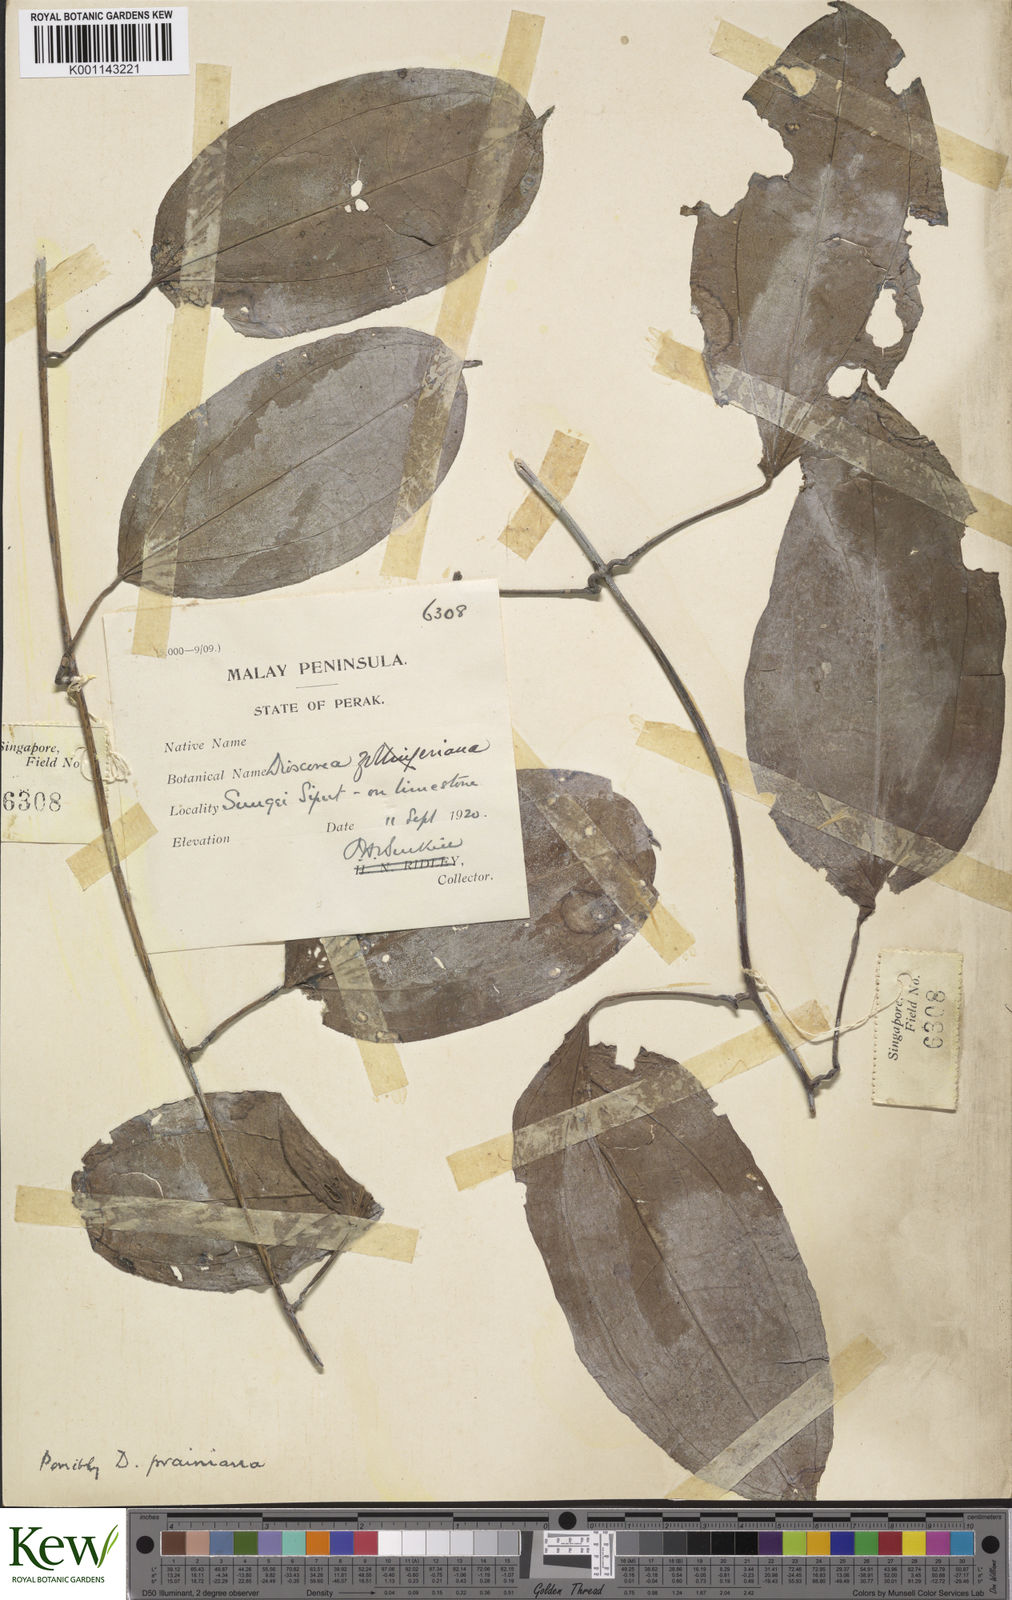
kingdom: Plantae
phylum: Tracheophyta
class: Liliopsida
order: Dioscoreales
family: Dioscoreaceae
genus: Dioscorea
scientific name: Dioscorea prainiana
